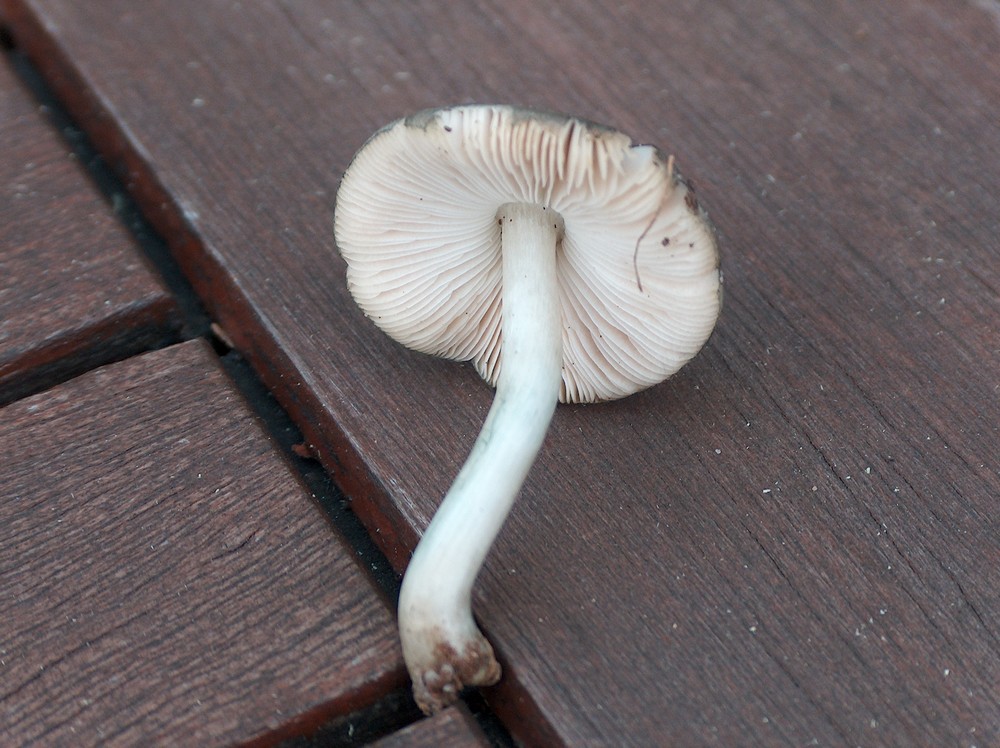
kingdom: Fungi
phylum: Basidiomycota
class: Agaricomycetes
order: Agaricales
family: Pluteaceae
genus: Pluteus
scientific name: Pluteus salicinus
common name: stiv skærmhat
